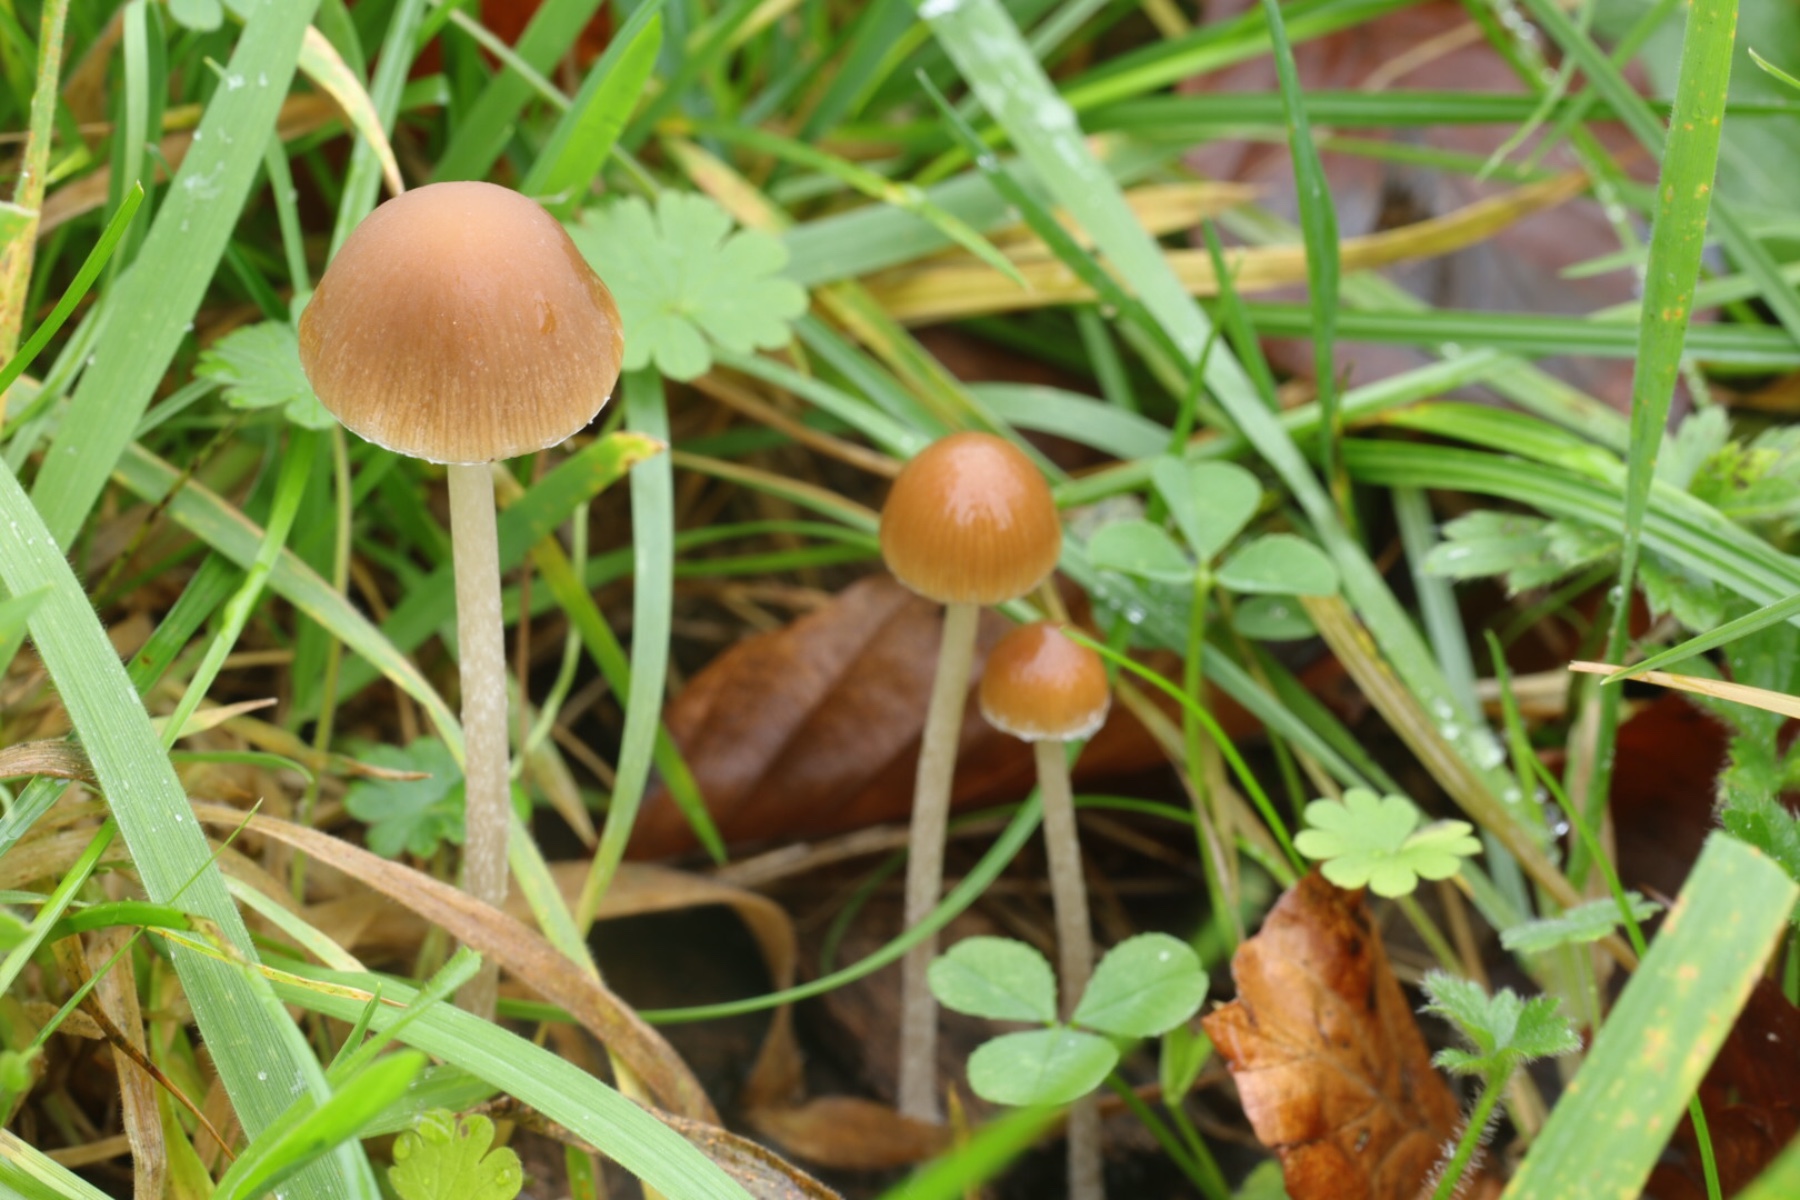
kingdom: Fungi
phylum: Basidiomycota
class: Agaricomycetes
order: Agaricales
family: Psathyrellaceae
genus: Psathyrella
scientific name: Psathyrella
